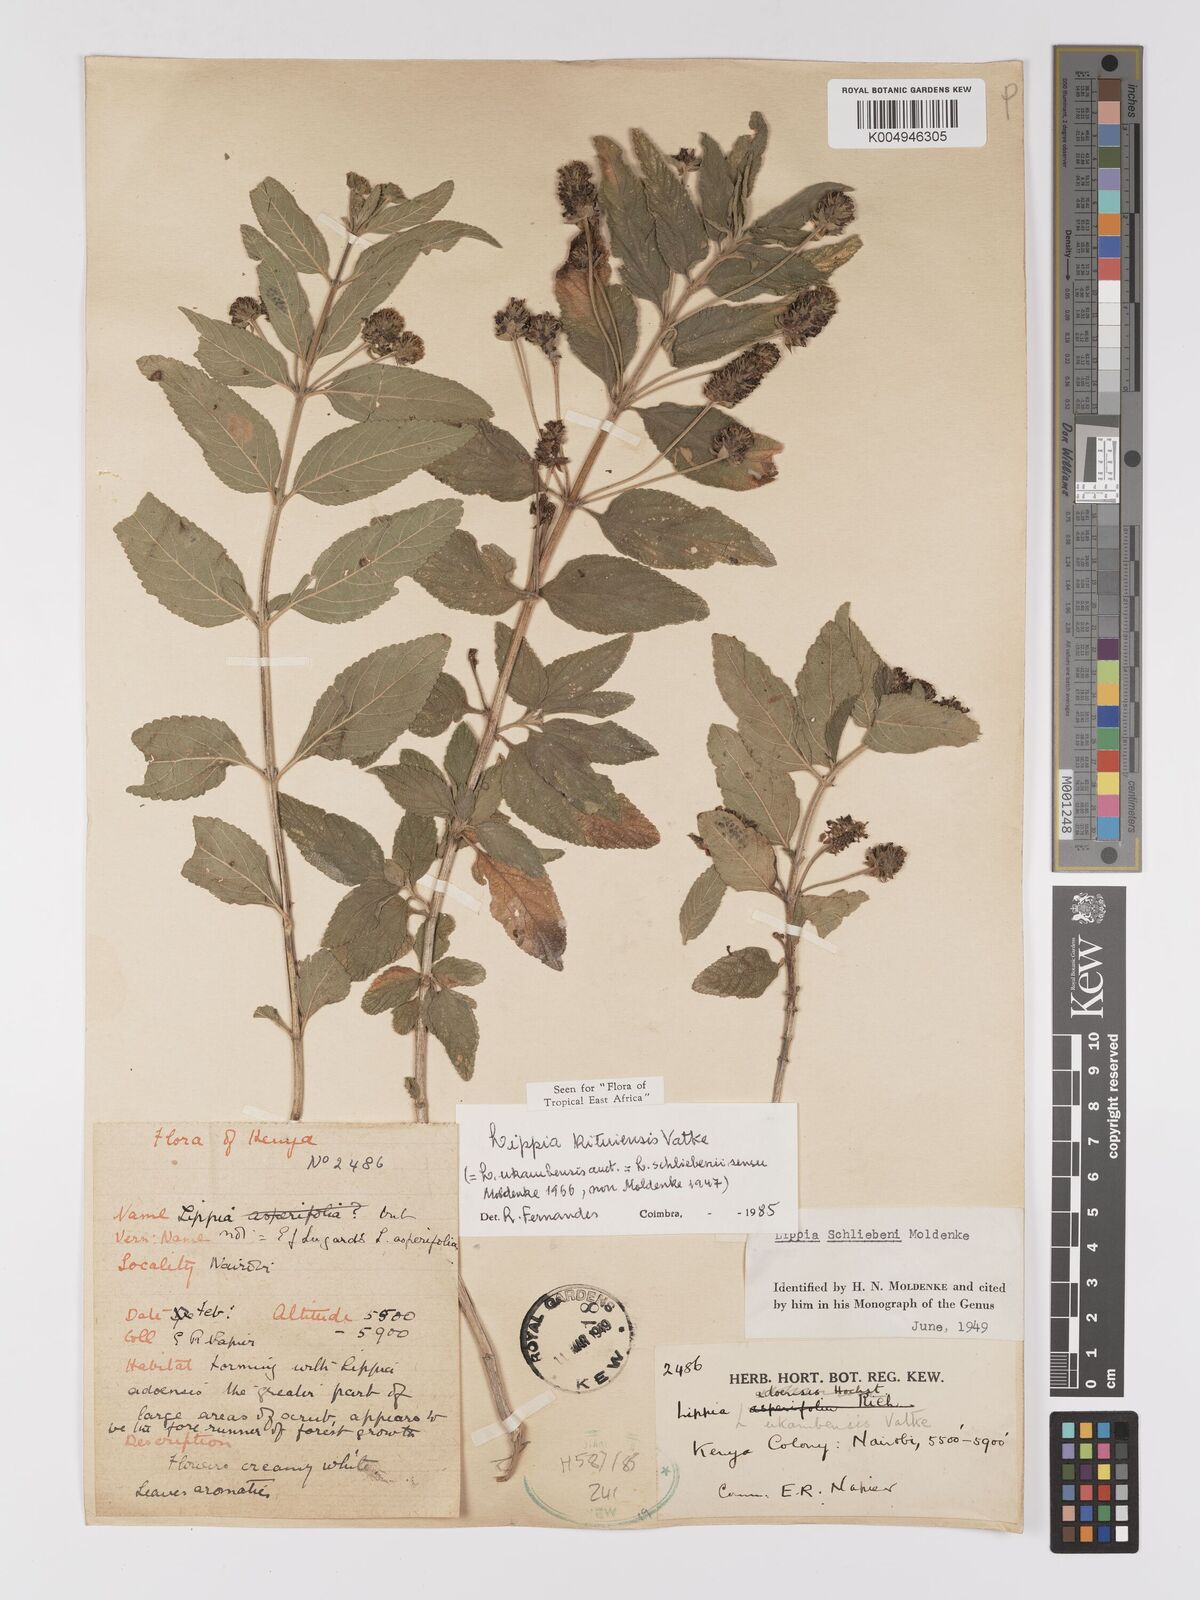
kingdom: Plantae
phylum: Tracheophyta
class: Magnoliopsida
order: Lamiales
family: Verbenaceae
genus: Lippia
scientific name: Lippia kituiensis
